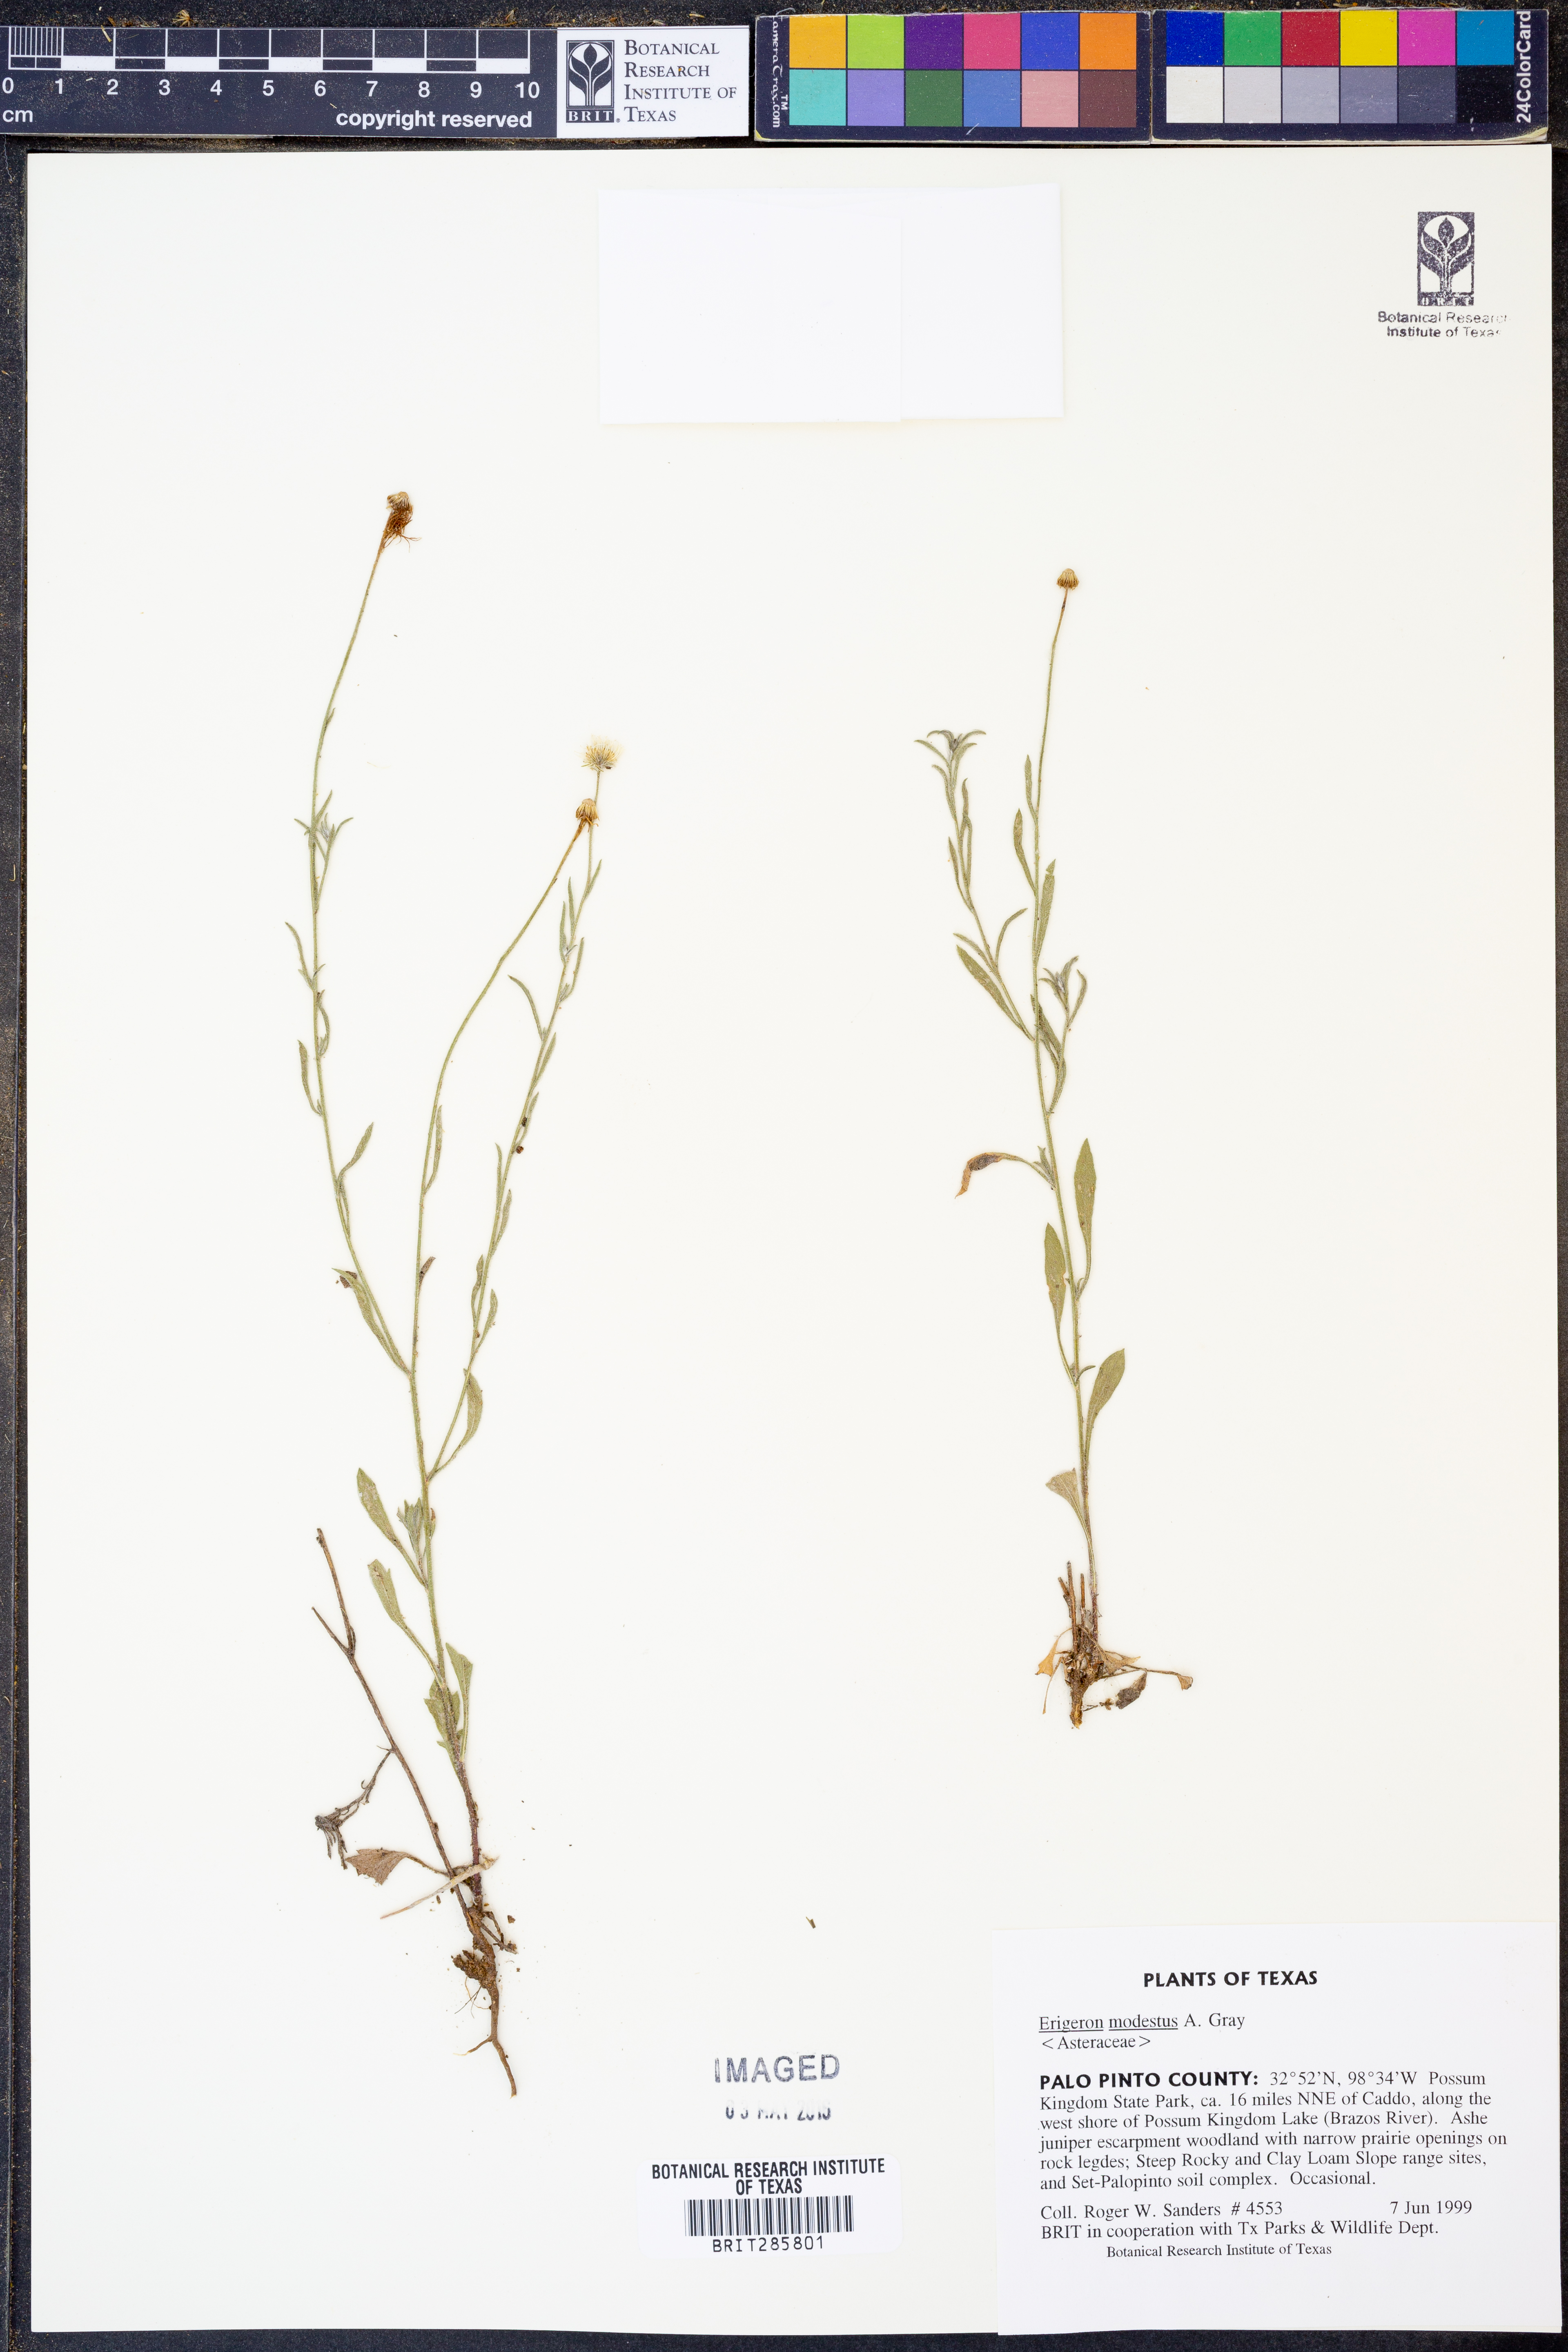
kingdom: Plantae
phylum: Tracheophyta
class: Magnoliopsida
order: Asterales
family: Asteraceae
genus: Erigeron
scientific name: Erigeron modestus
